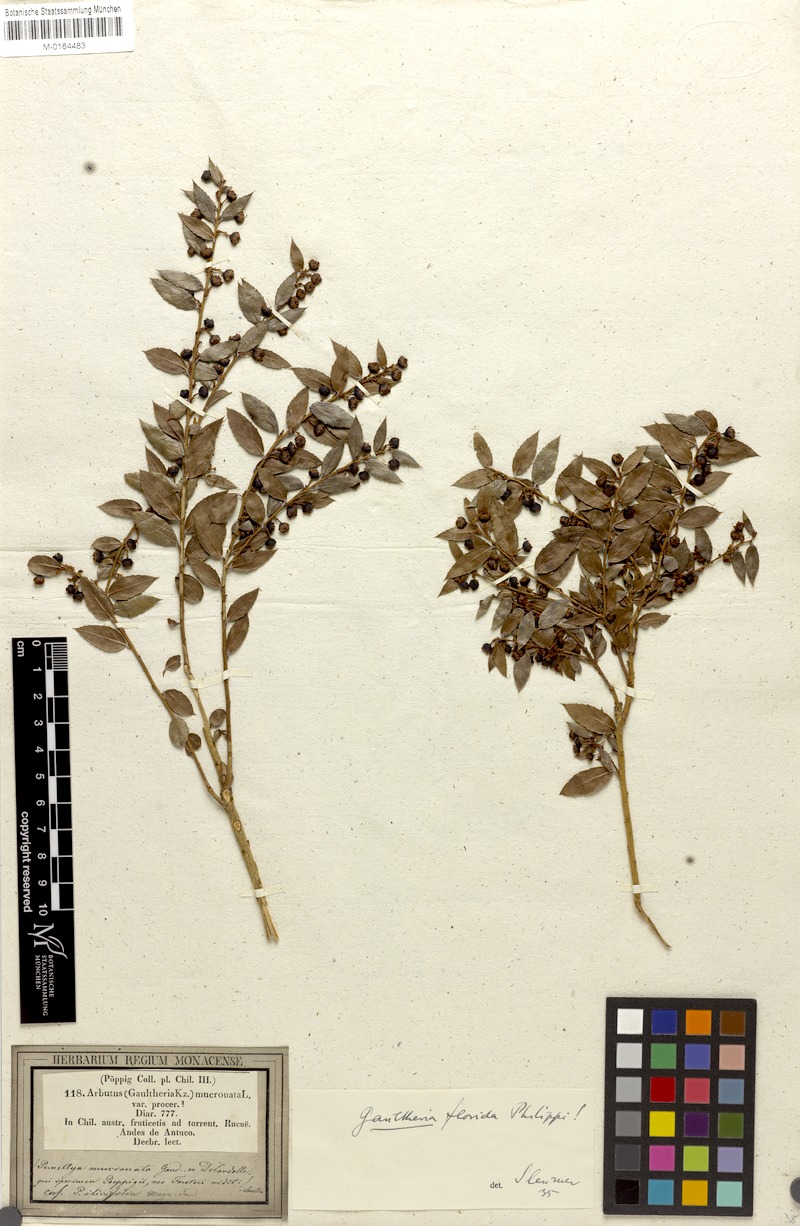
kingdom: Plantae
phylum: Tracheophyta
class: Magnoliopsida
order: Ericales
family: Ericaceae
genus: Gaultheria
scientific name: Gaultheria phillyreifolia
